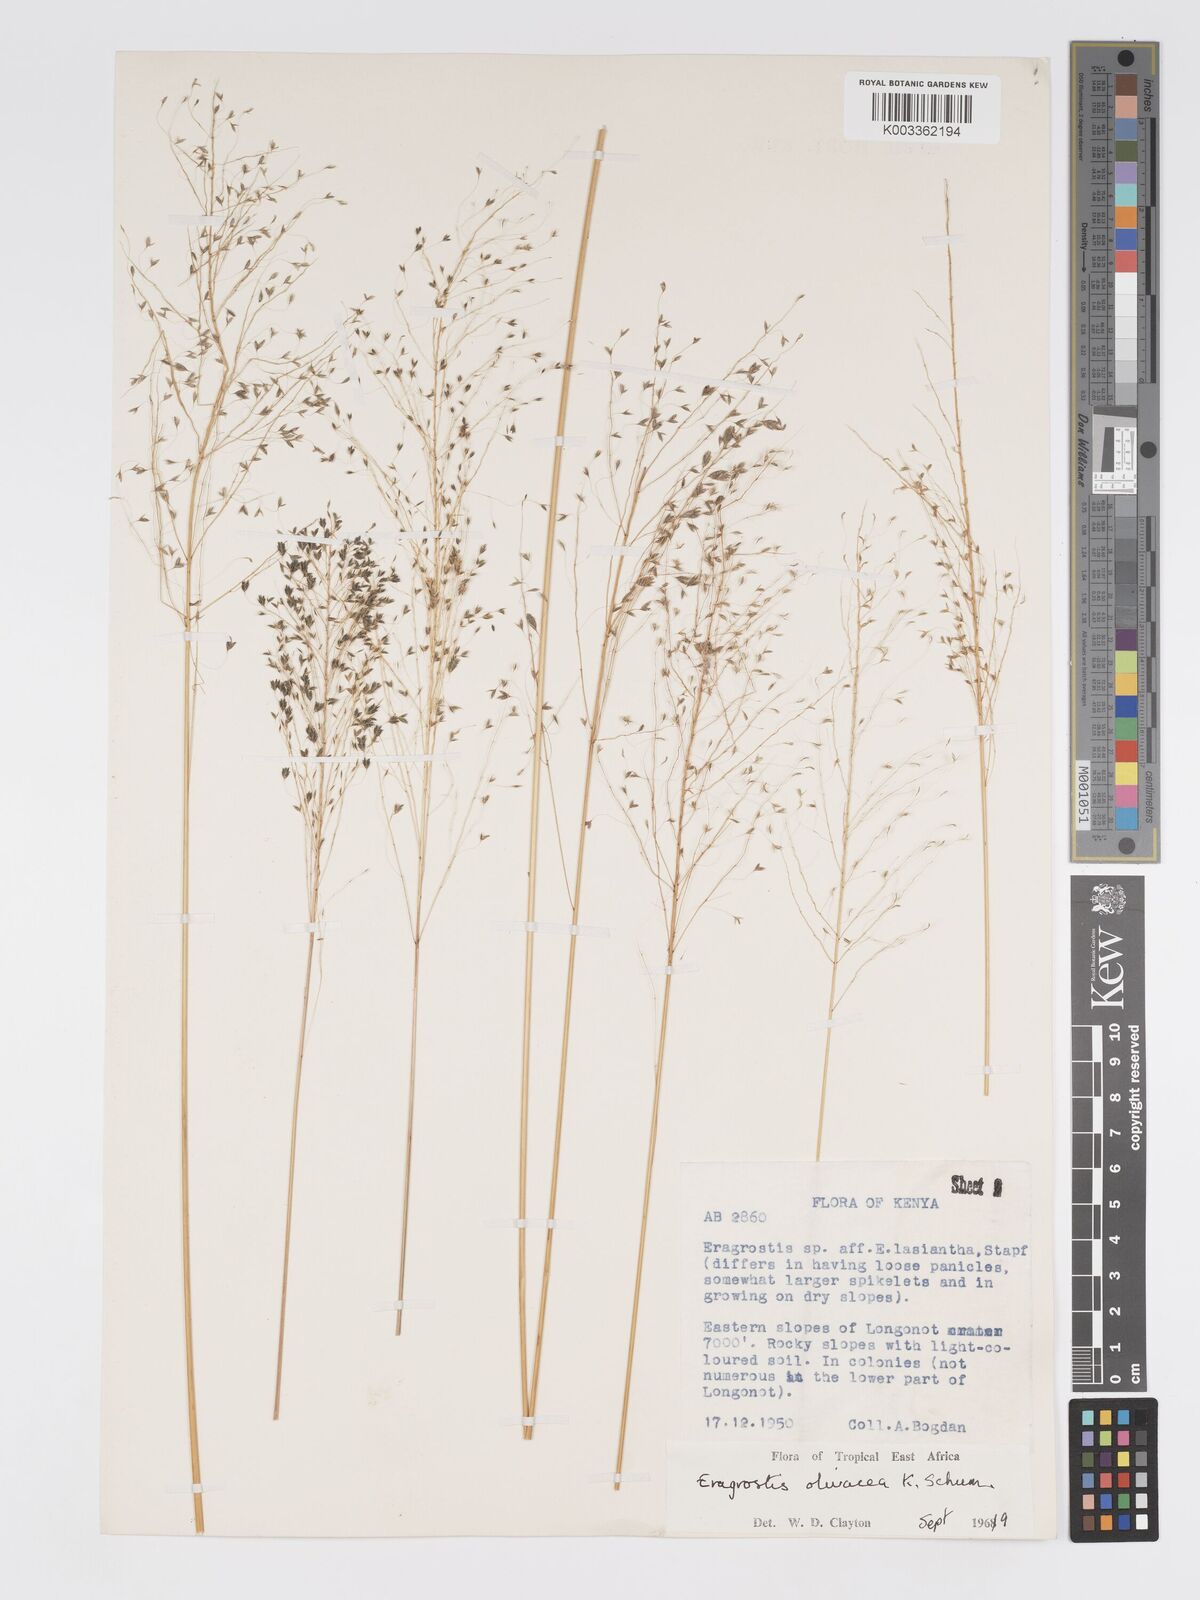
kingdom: Plantae
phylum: Tracheophyta
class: Liliopsida
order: Poales
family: Poaceae
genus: Eragrostis
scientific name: Eragrostis olivacea
